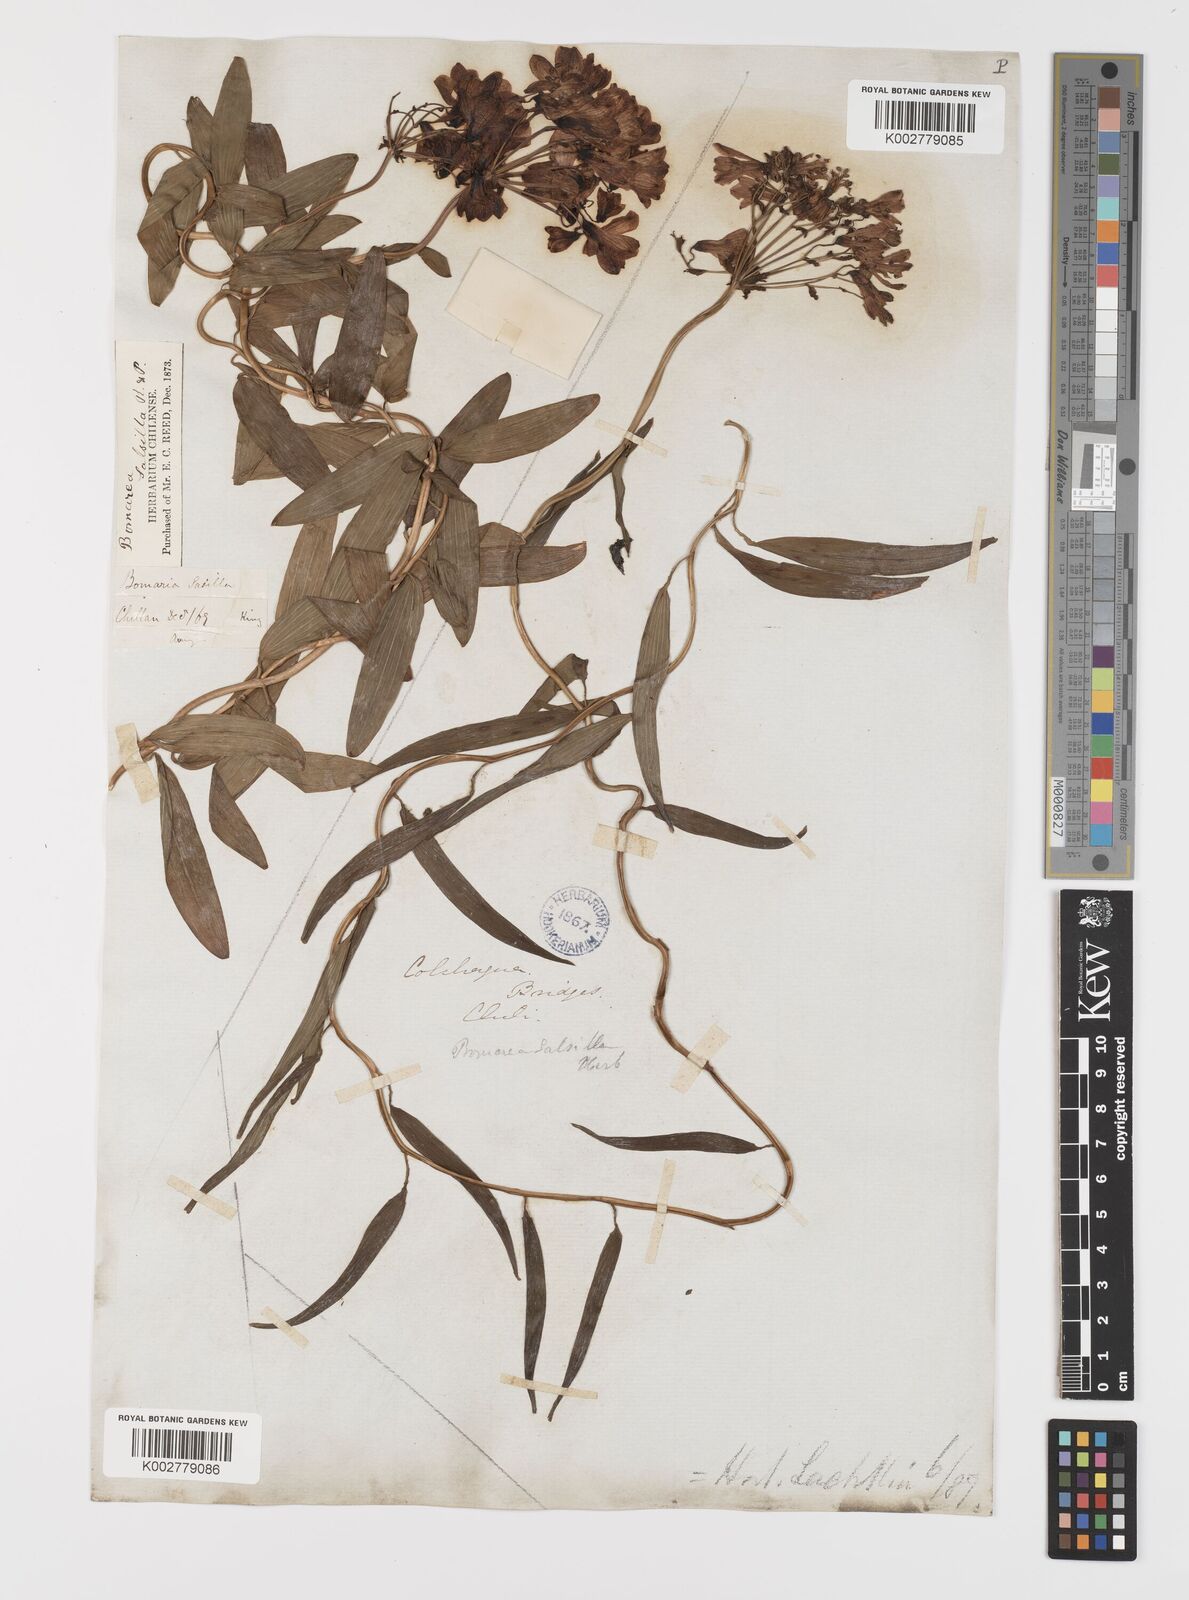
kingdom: Plantae
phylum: Tracheophyta
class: Liliopsida
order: Liliales
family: Alstroemeriaceae
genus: Bomarea
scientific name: Bomarea edulis
